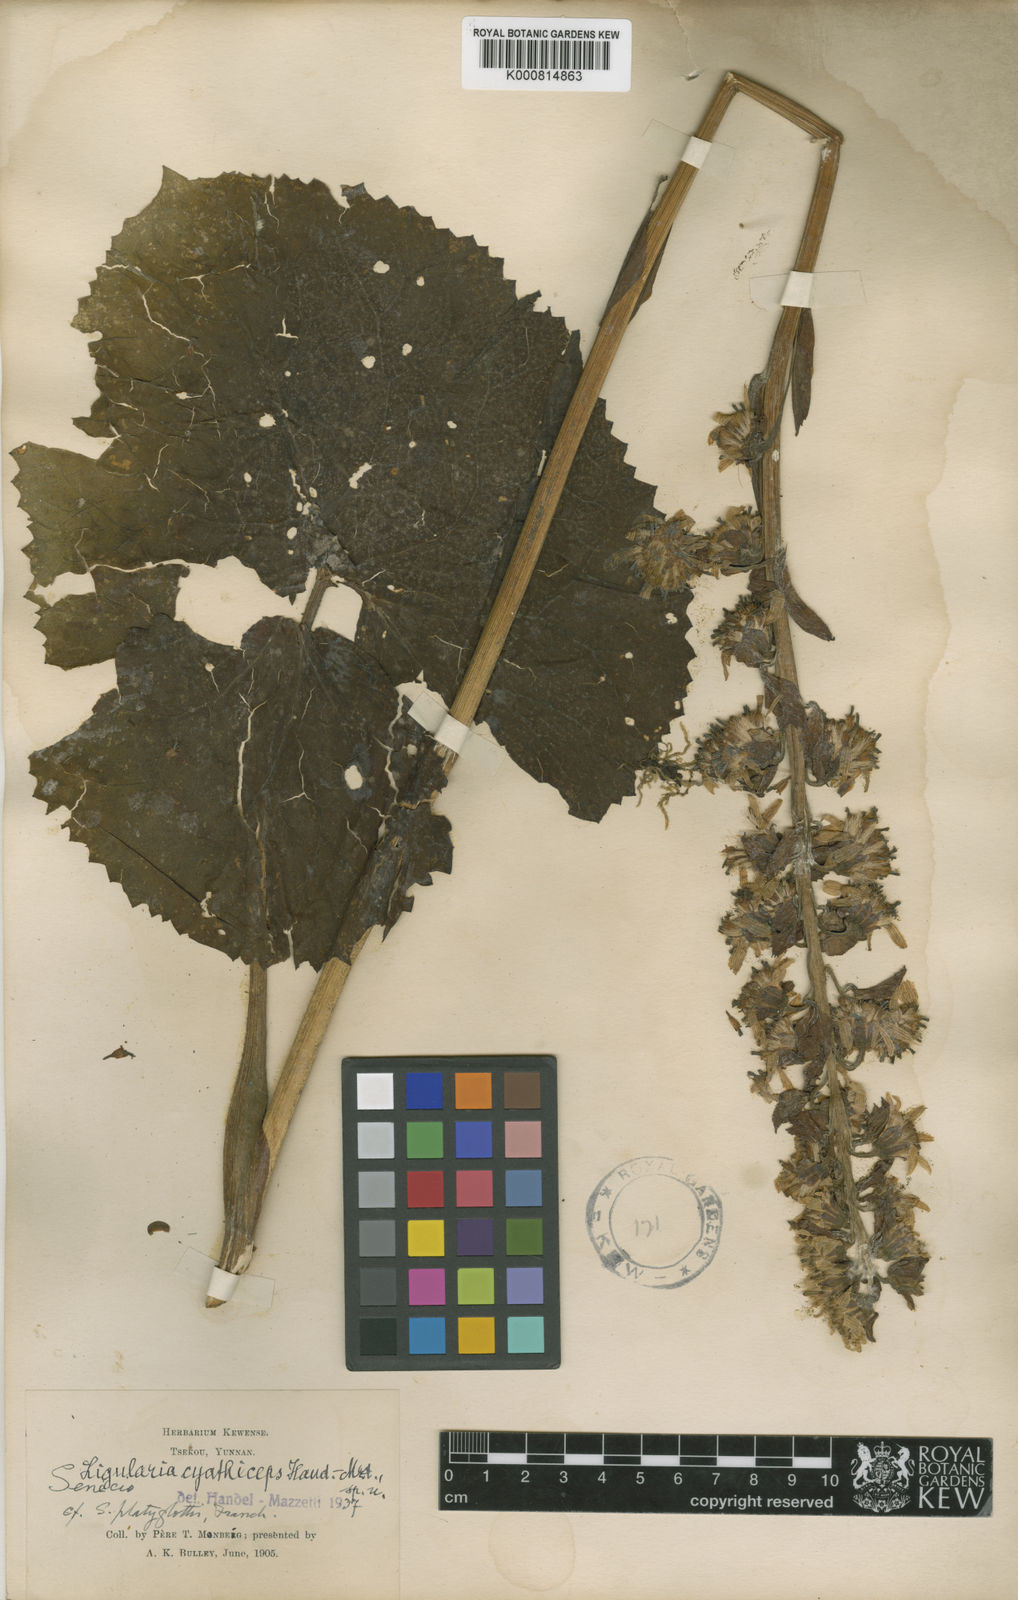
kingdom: Plantae
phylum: Tracheophyta
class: Magnoliopsida
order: Asterales
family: Asteraceae
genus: Ligularia
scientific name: Ligularia cyathiceps
